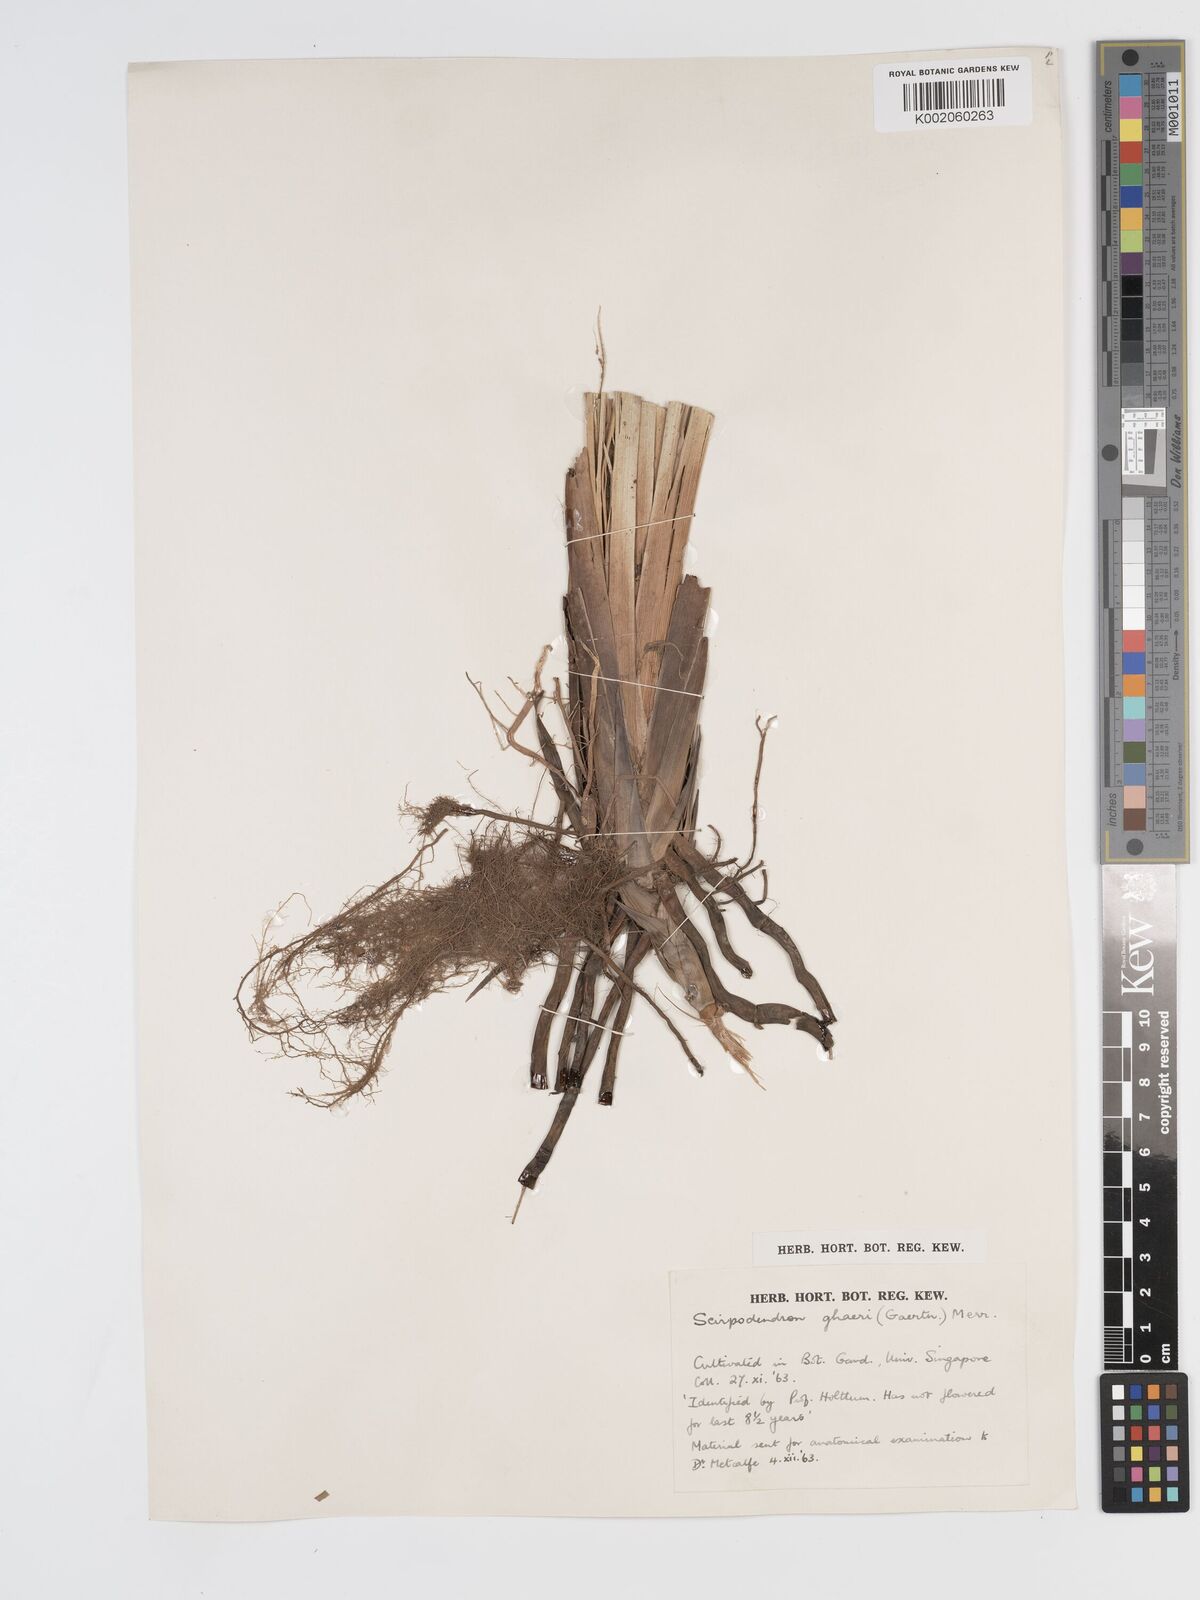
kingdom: Plantae
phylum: Tracheophyta
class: Liliopsida
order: Poales
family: Cyperaceae
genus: Scirpodendron
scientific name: Scirpodendron ghaeri
